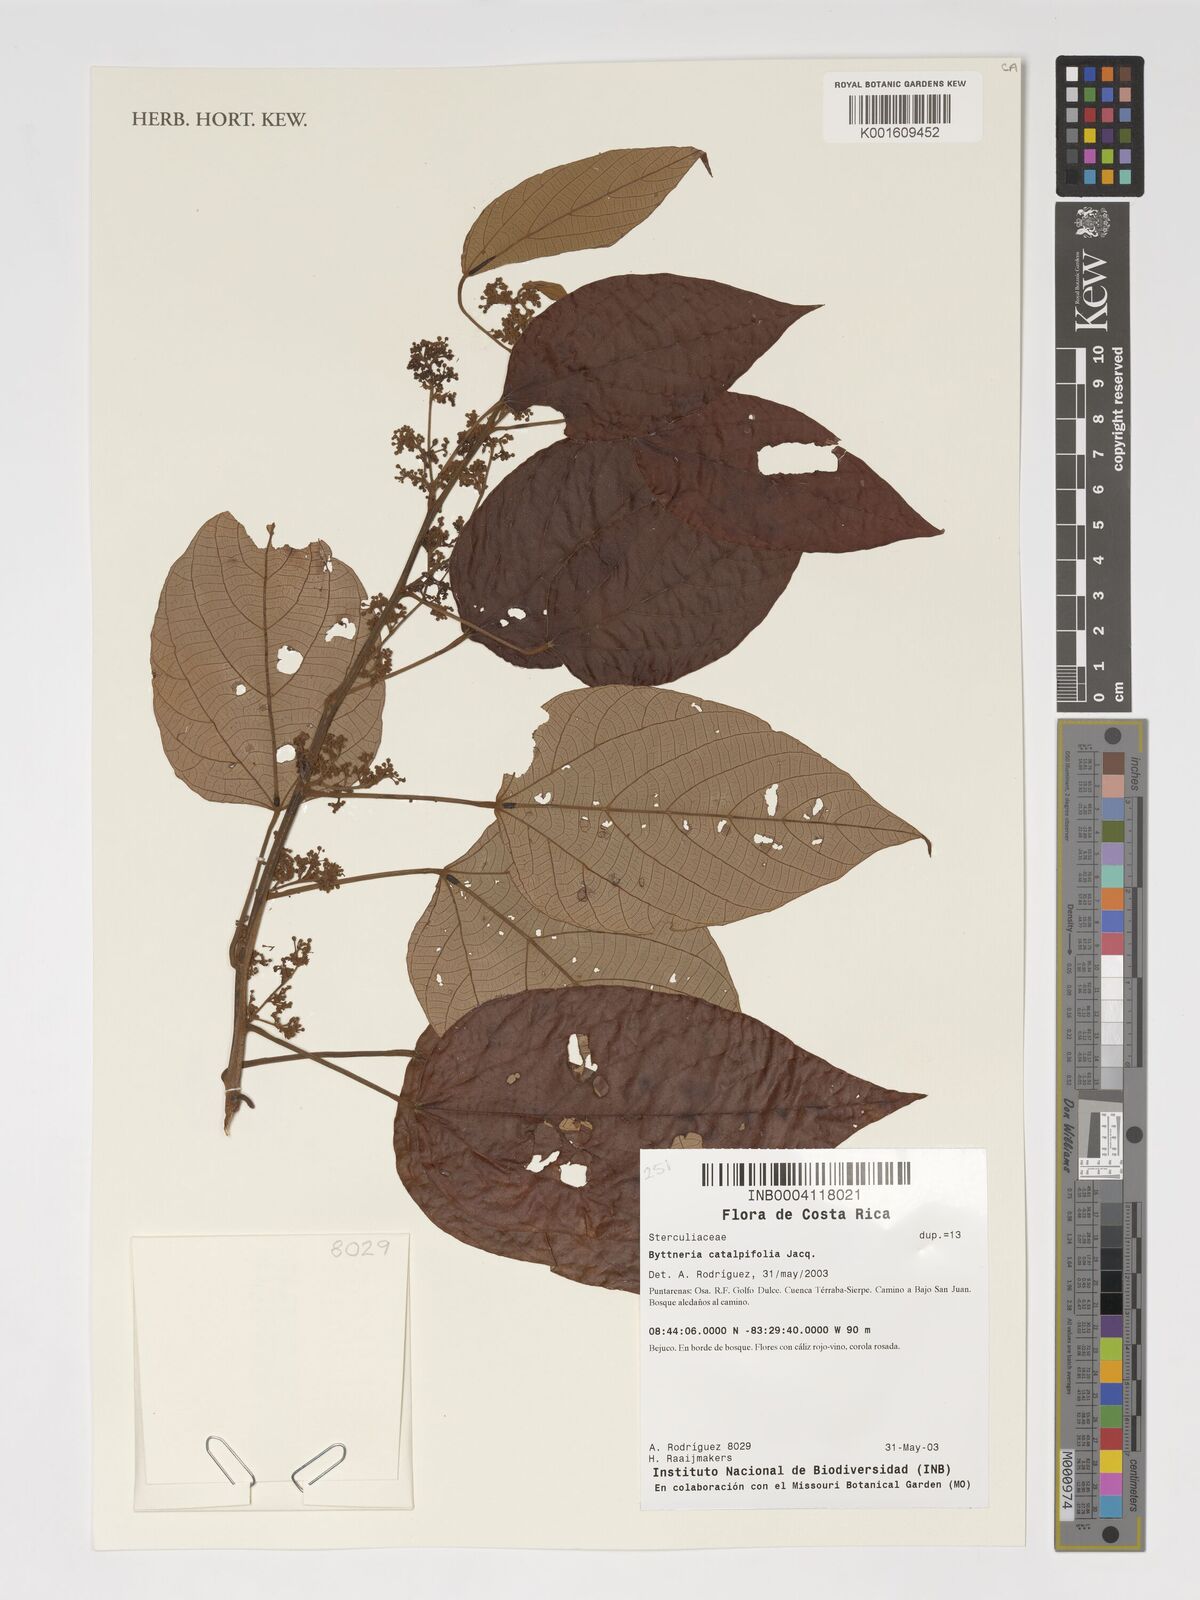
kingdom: Plantae
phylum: Tracheophyta
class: Magnoliopsida
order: Malvales
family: Malvaceae
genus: Byttneria
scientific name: Byttneria catalpifolia
